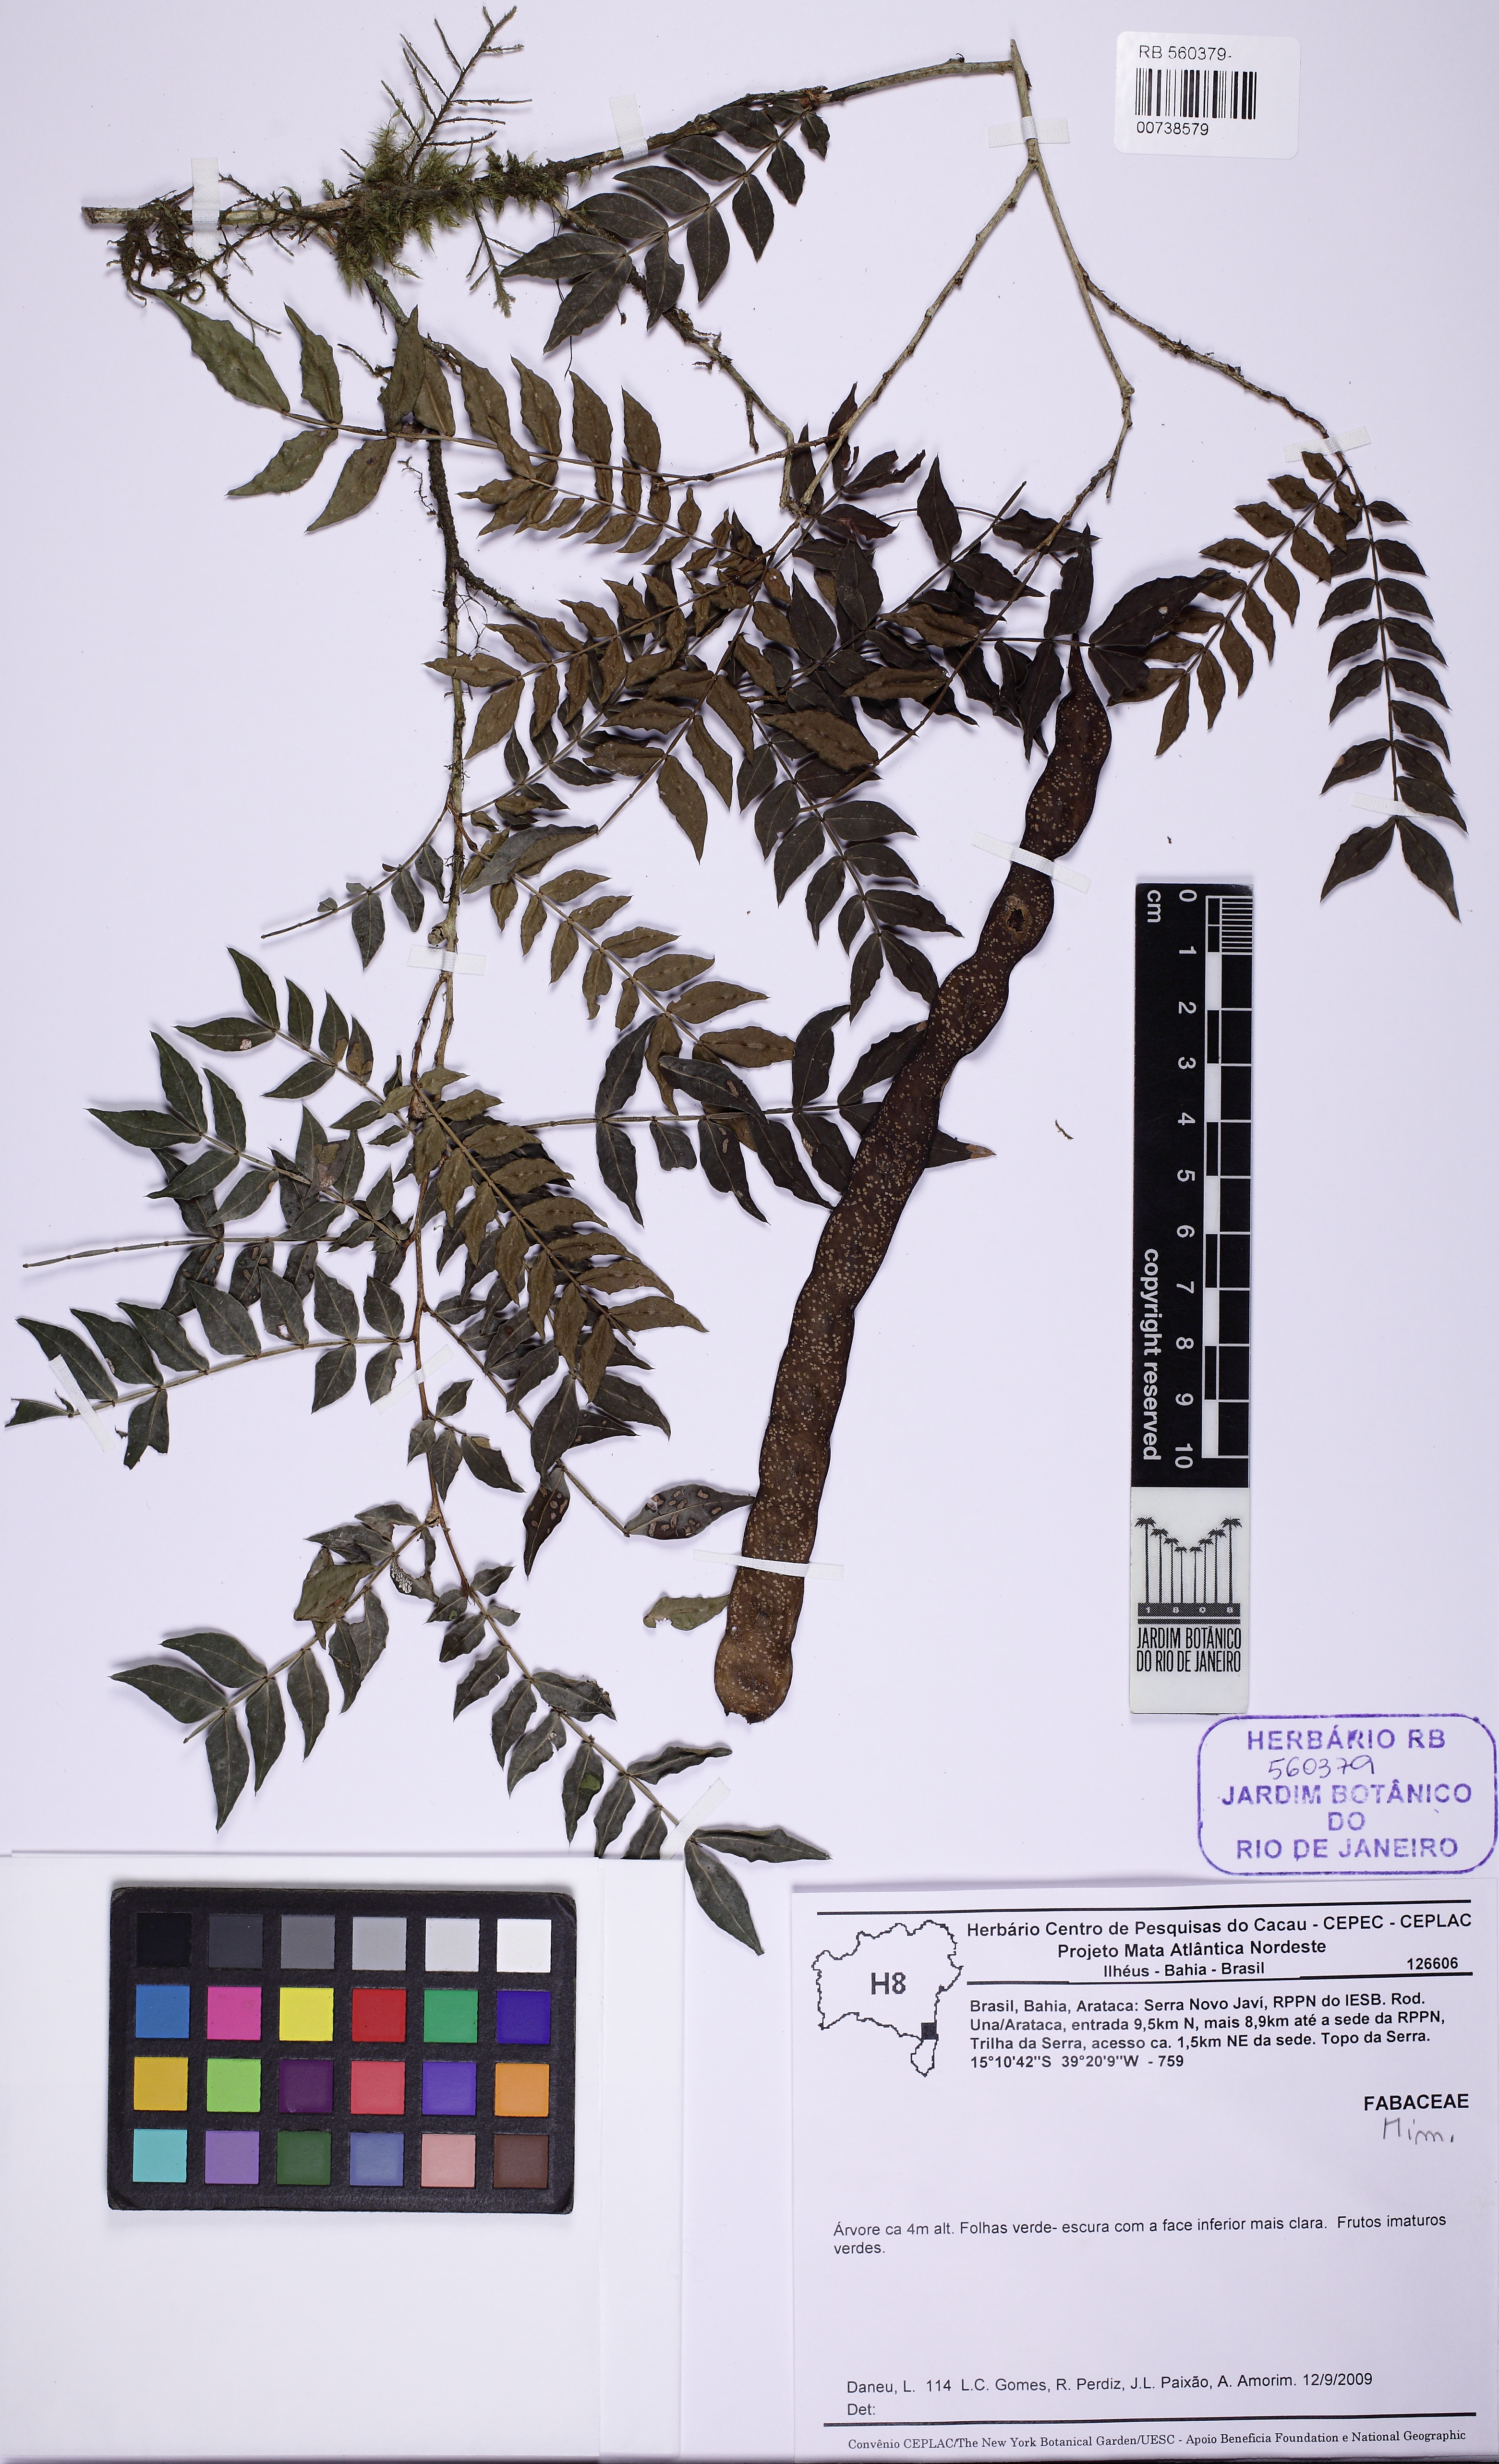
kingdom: Plantae
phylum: Tracheophyta
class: Magnoliopsida
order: Fabales
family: Fabaceae
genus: Pseudopiptadenia
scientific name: Pseudopiptadenia
